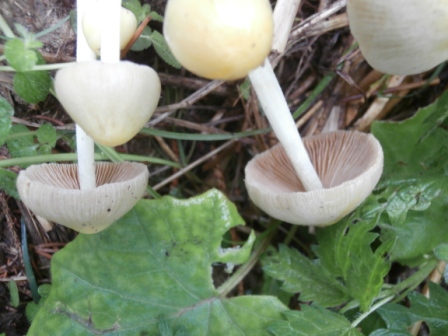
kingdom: Fungi
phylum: Basidiomycota
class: Agaricomycetes
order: Agaricales
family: Bolbitiaceae
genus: Bolbitius
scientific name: Bolbitius titubans
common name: almindelig gulhat
